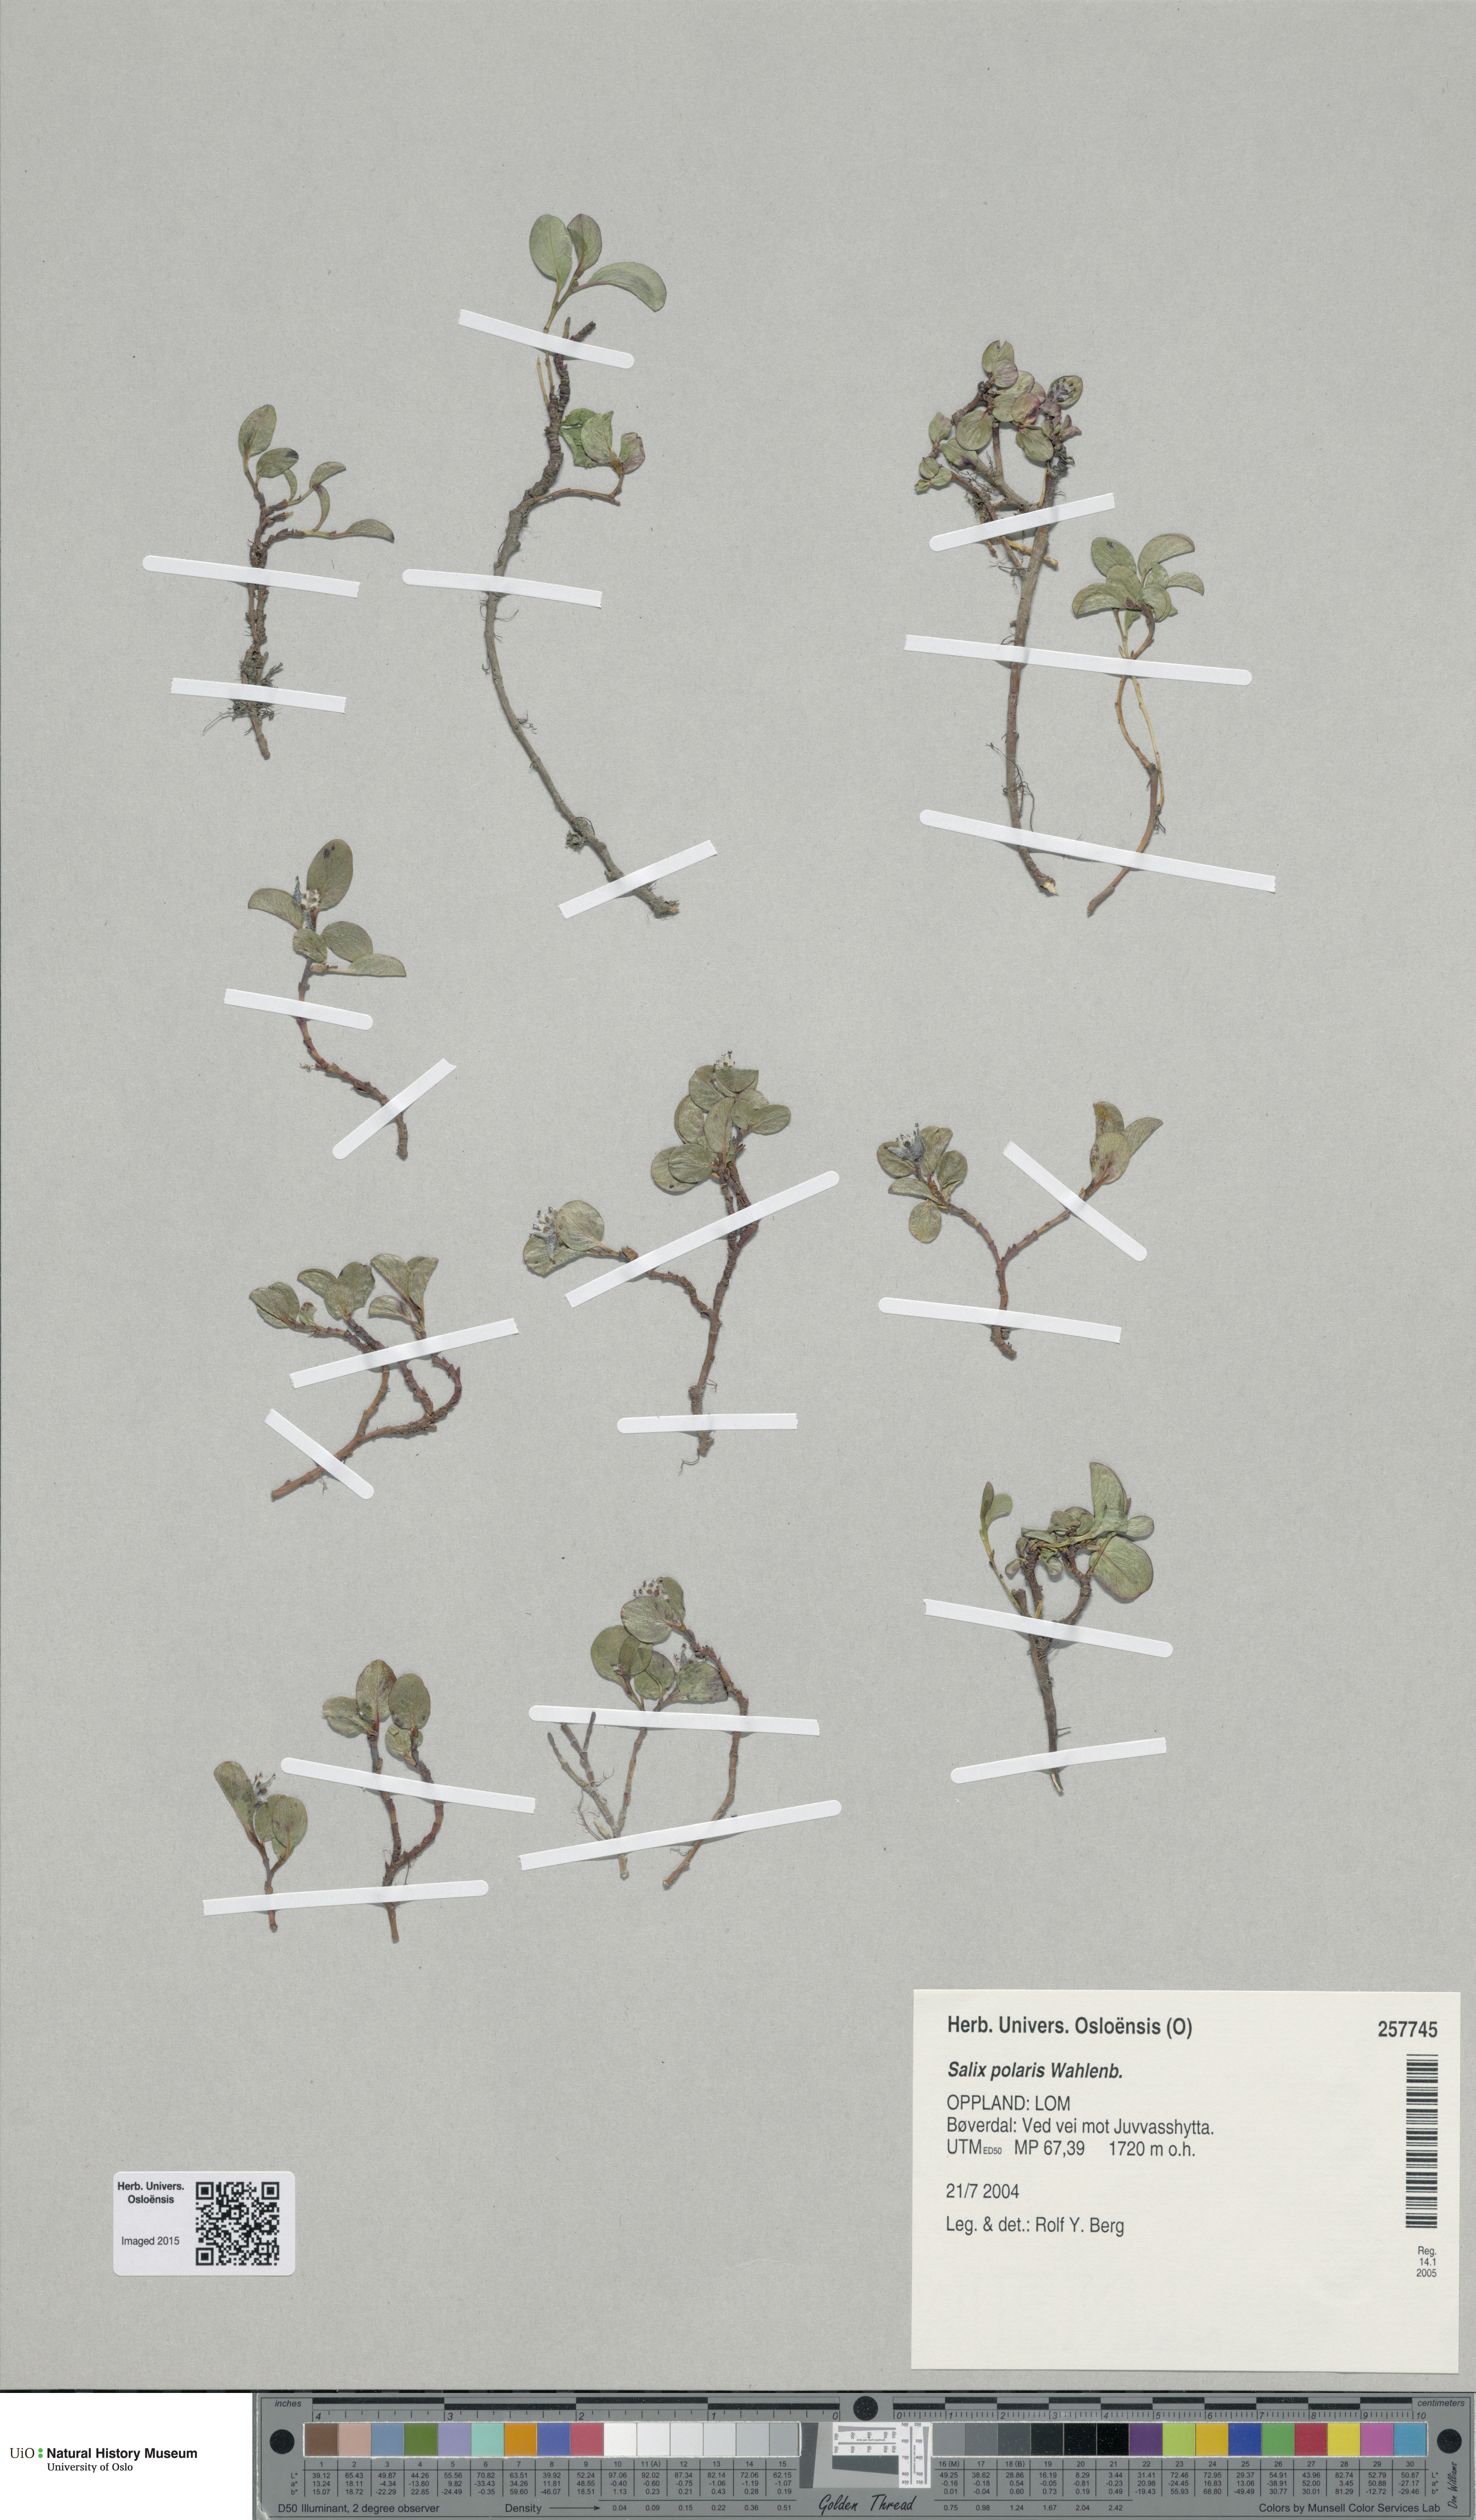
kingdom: Plantae
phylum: Tracheophyta
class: Magnoliopsida
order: Malpighiales
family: Salicaceae
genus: Salix
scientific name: Salix polaris
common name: Polar willow
